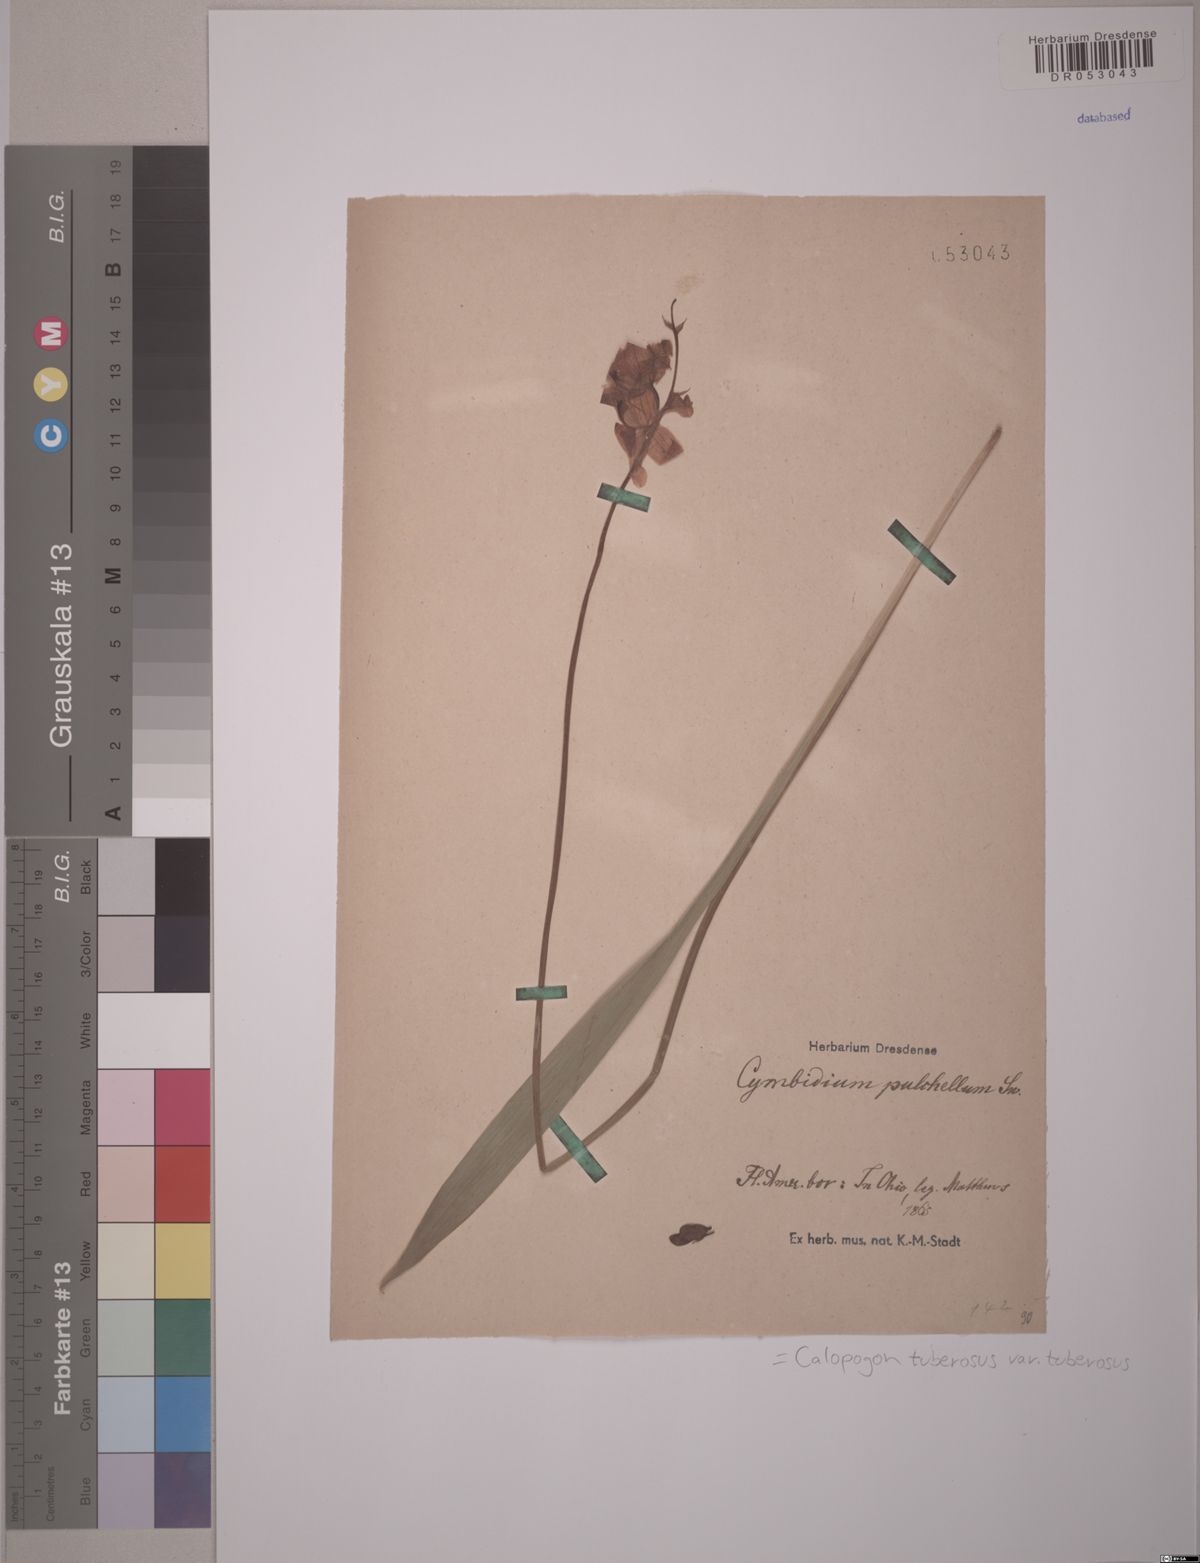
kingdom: Plantae
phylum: Tracheophyta
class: Liliopsida
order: Asparagales
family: Orchidaceae
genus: Calopogon
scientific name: Calopogon tuberosus
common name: Grass-pink
